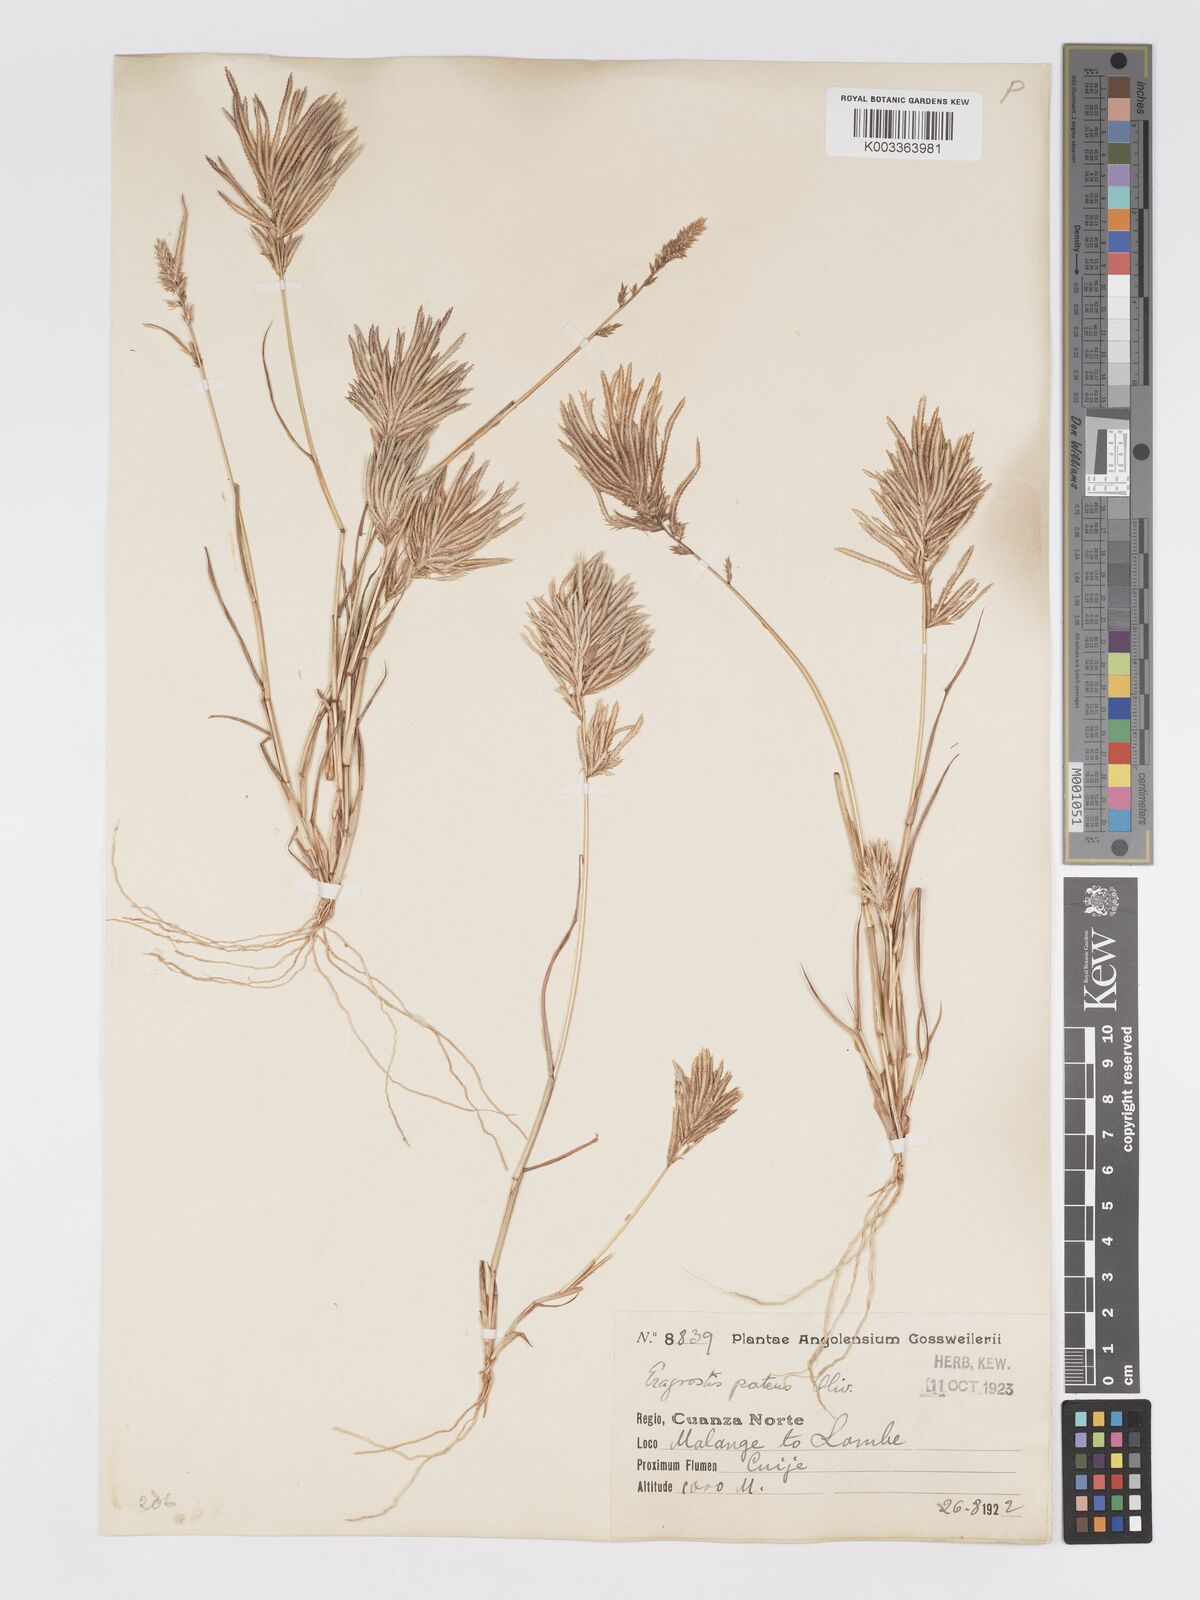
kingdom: Plantae
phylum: Tracheophyta
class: Liliopsida
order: Poales
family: Poaceae
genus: Eragrostis
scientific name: Eragrostis patens
